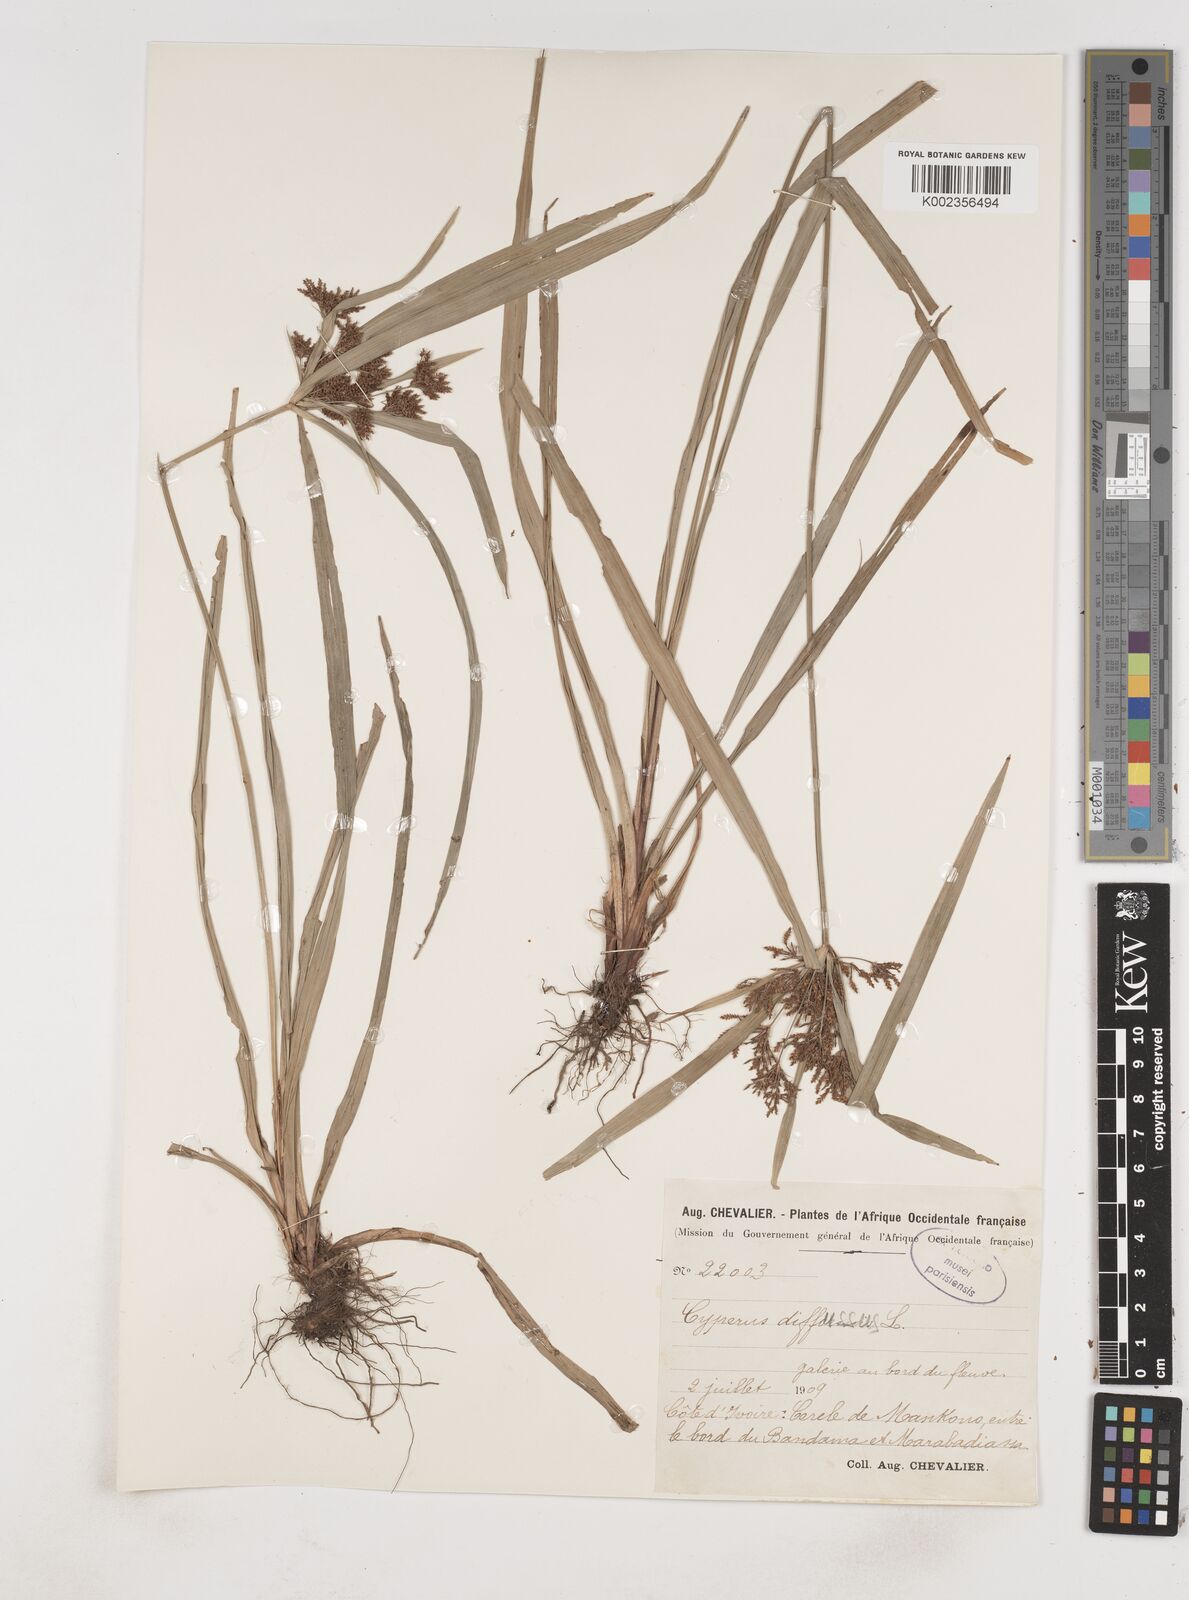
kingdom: Plantae
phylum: Tracheophyta
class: Liliopsida
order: Poales
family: Cyperaceae
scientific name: Cyperaceae
